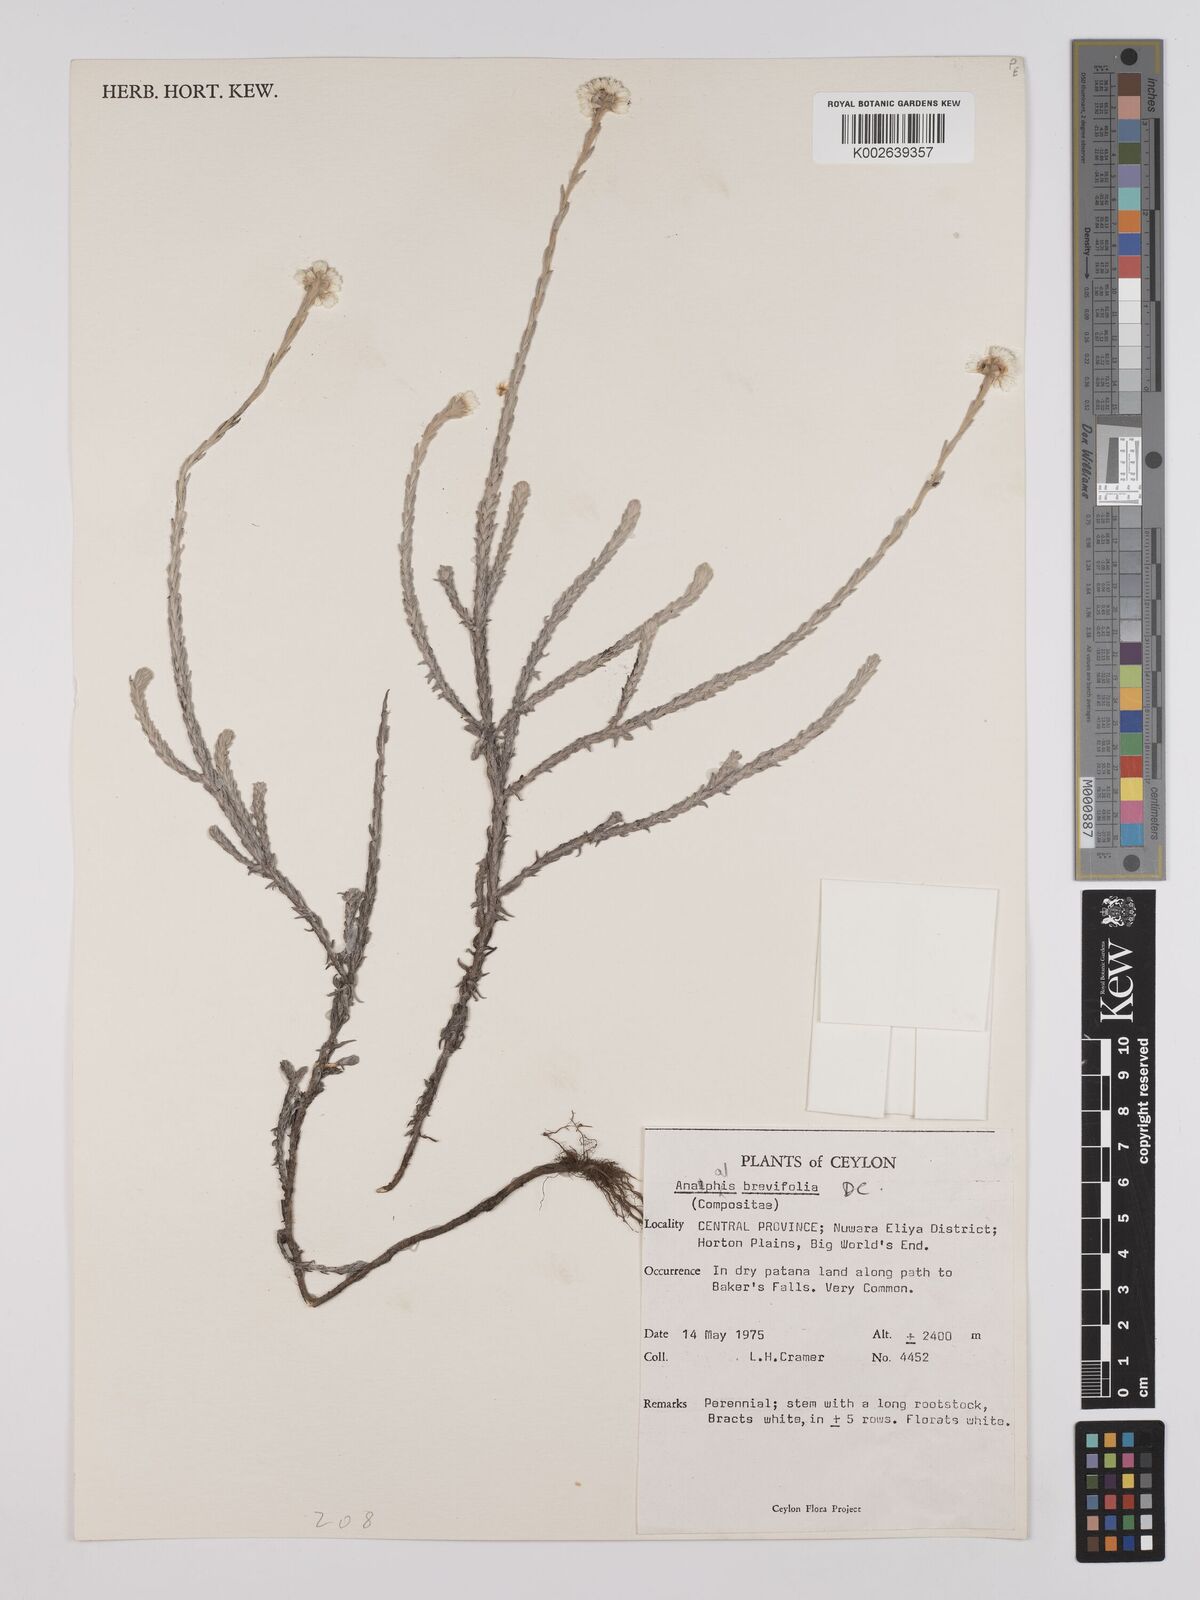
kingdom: Plantae
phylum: Tracheophyta
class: Magnoliopsida
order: Asterales
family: Asteraceae
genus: Anaphalis
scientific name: Anaphalis brevifolia
